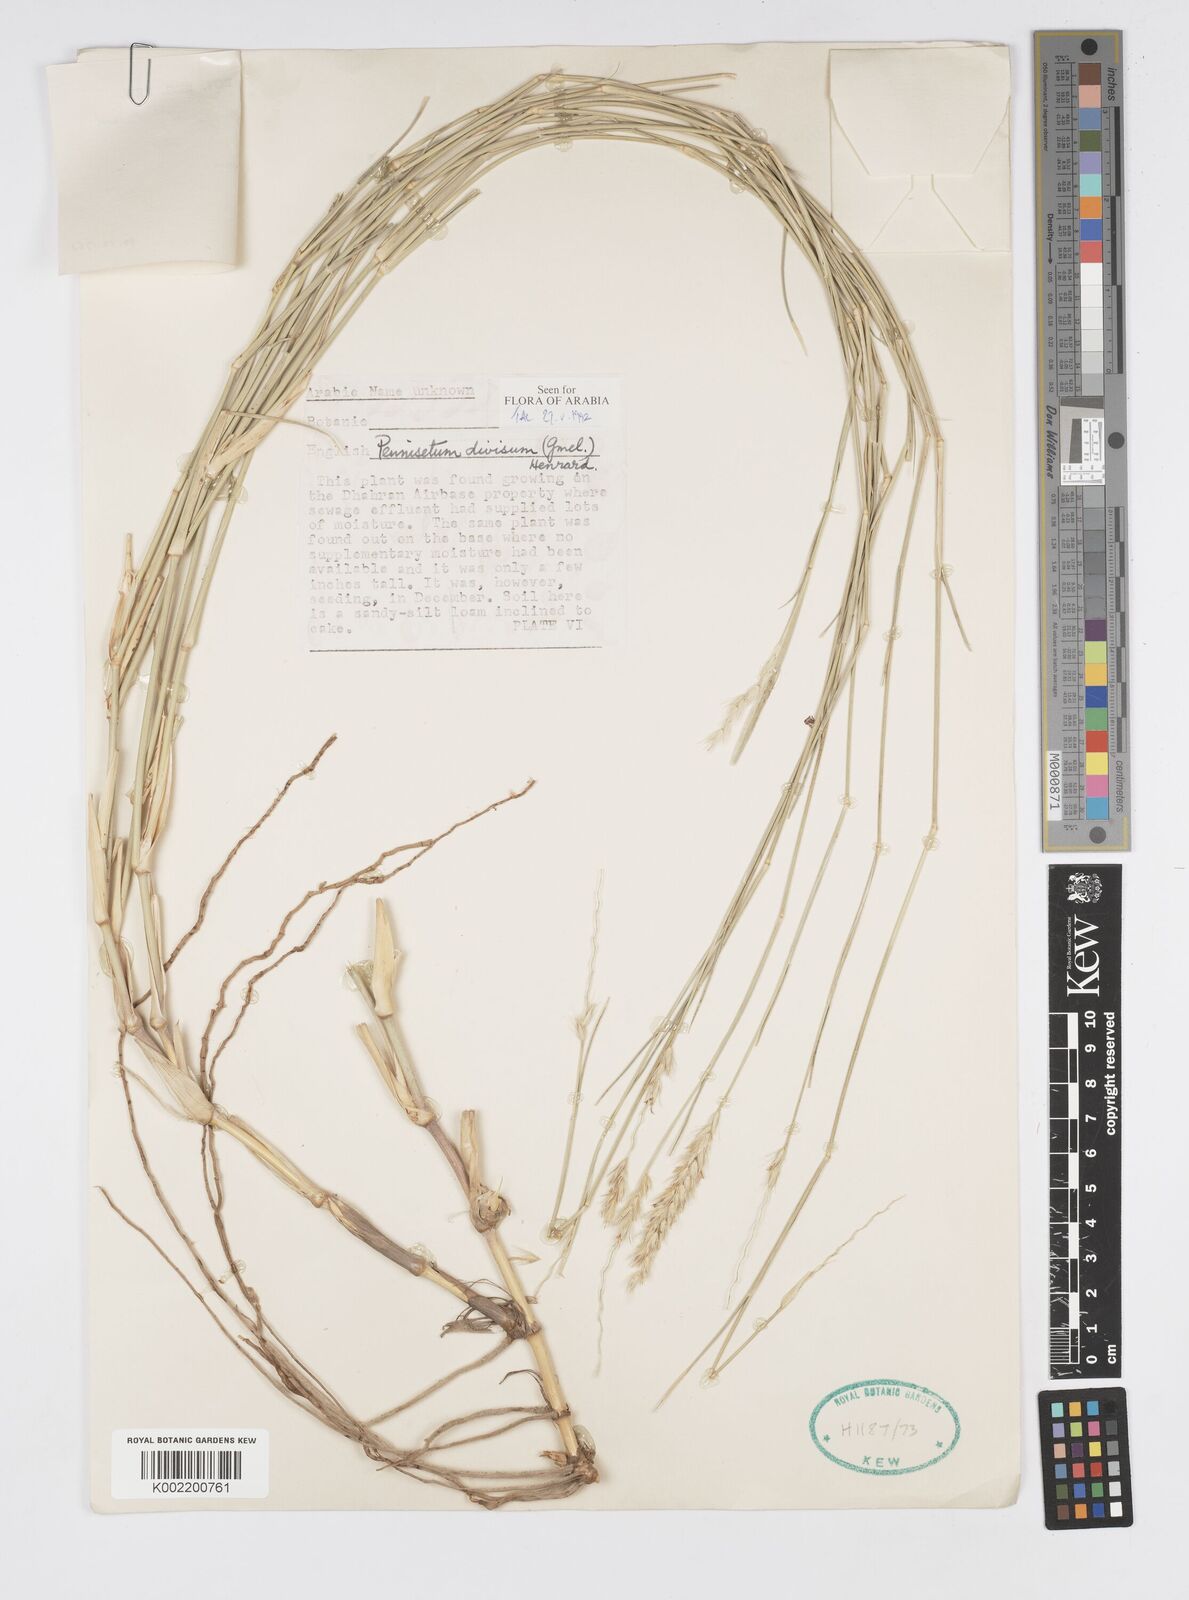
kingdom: Plantae
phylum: Tracheophyta
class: Liliopsida
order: Poales
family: Poaceae
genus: Cenchrus
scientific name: Cenchrus divisus
